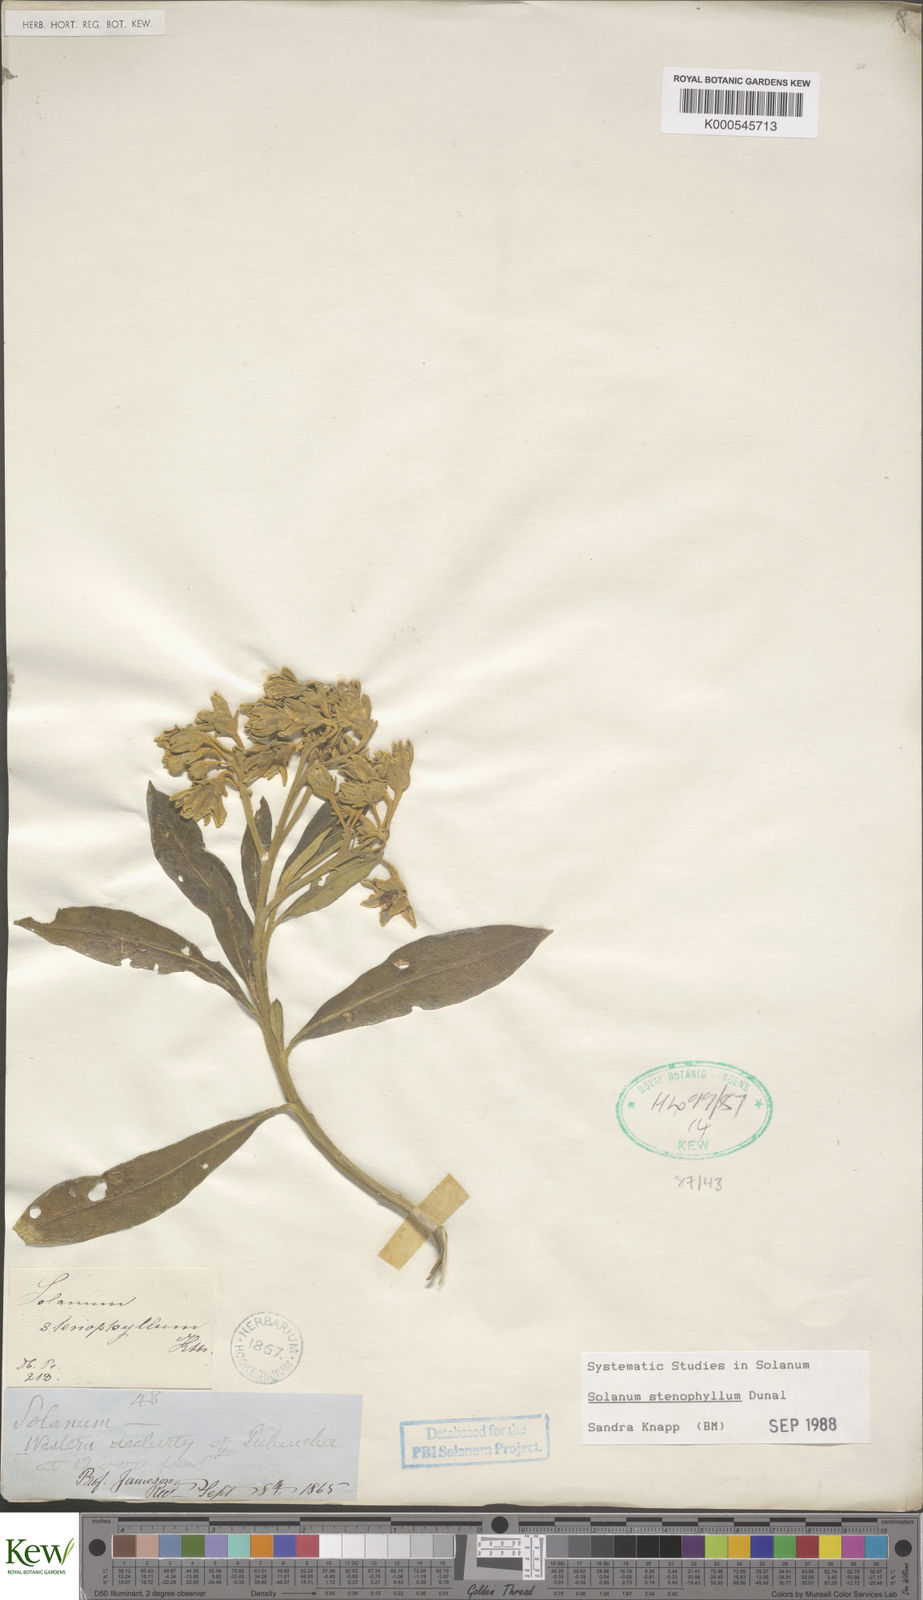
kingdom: Plantae
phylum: Tracheophyta
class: Magnoliopsida
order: Solanales
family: Solanaceae
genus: Solanum
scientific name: Solanum stenophyllum
